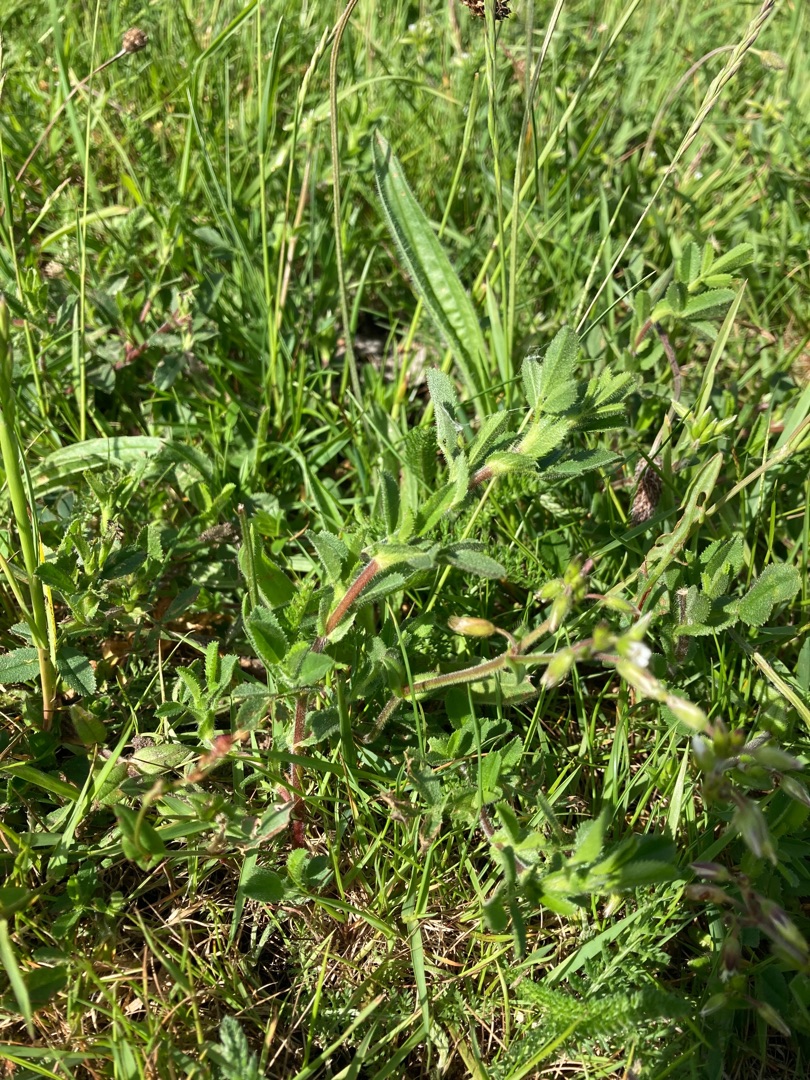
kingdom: Plantae
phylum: Tracheophyta
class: Magnoliopsida
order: Fabales
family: Fabaceae
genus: Ononis
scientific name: Ononis spinosa
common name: Mark-krageklo
